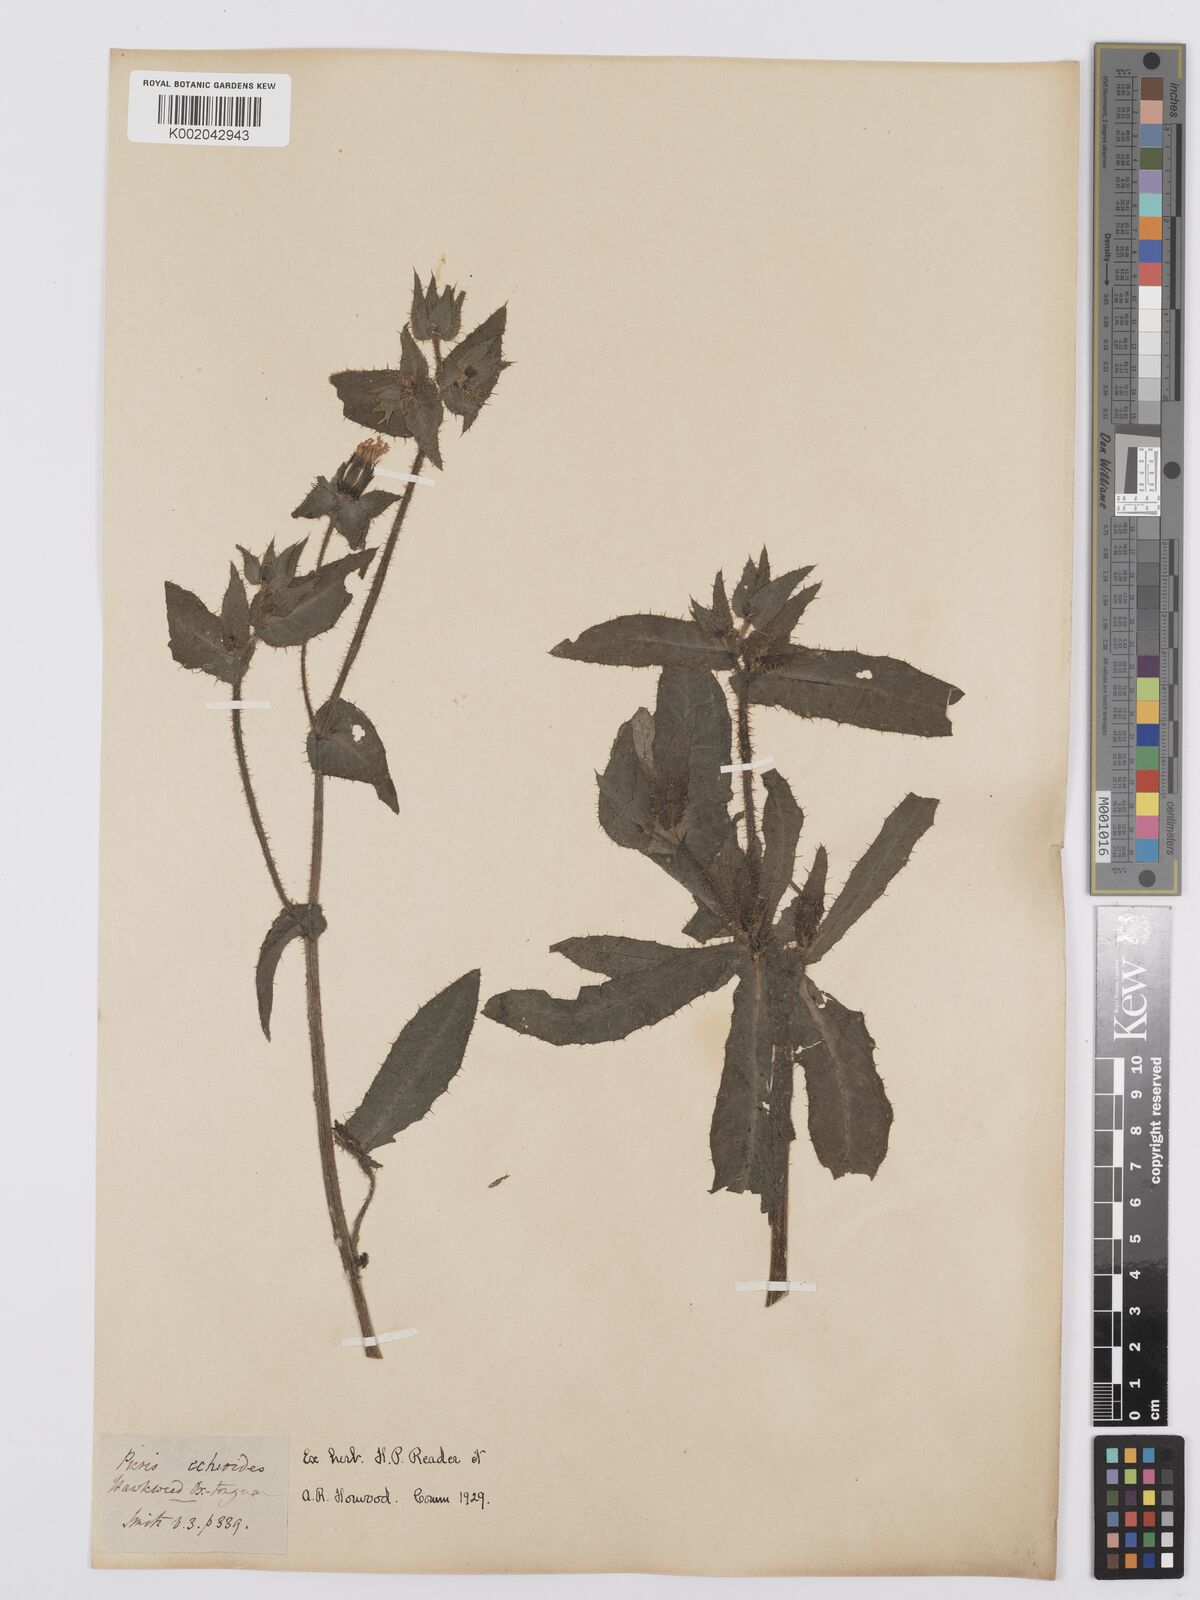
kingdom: Plantae
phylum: Tracheophyta
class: Magnoliopsida
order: Asterales
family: Asteraceae
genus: Helminthotheca
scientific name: Helminthotheca echioides
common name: Ox-tongue
